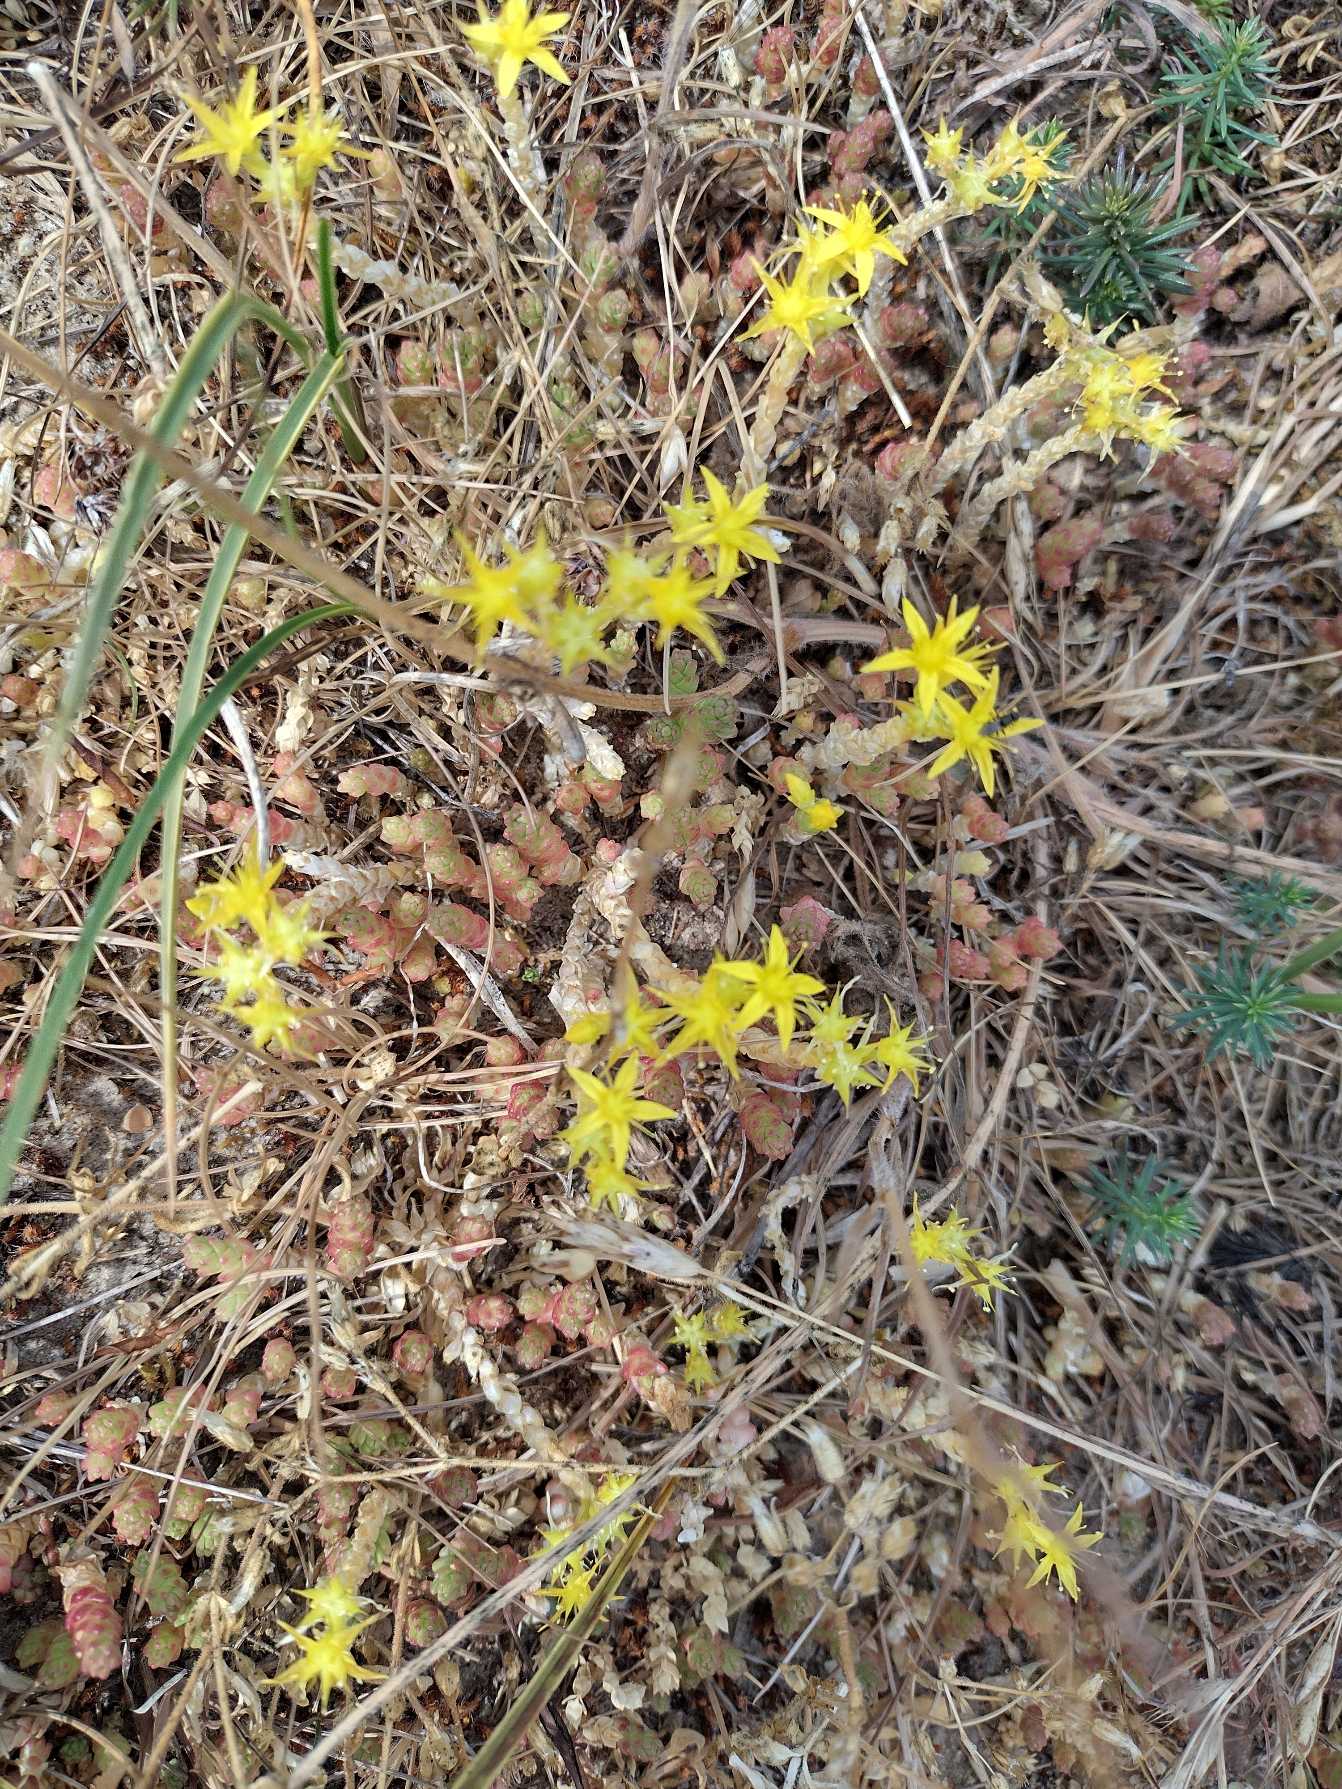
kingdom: Plantae
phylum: Tracheophyta
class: Magnoliopsida
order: Saxifragales
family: Crassulaceae
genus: Sedum
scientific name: Sedum acre
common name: Bidende stenurt
